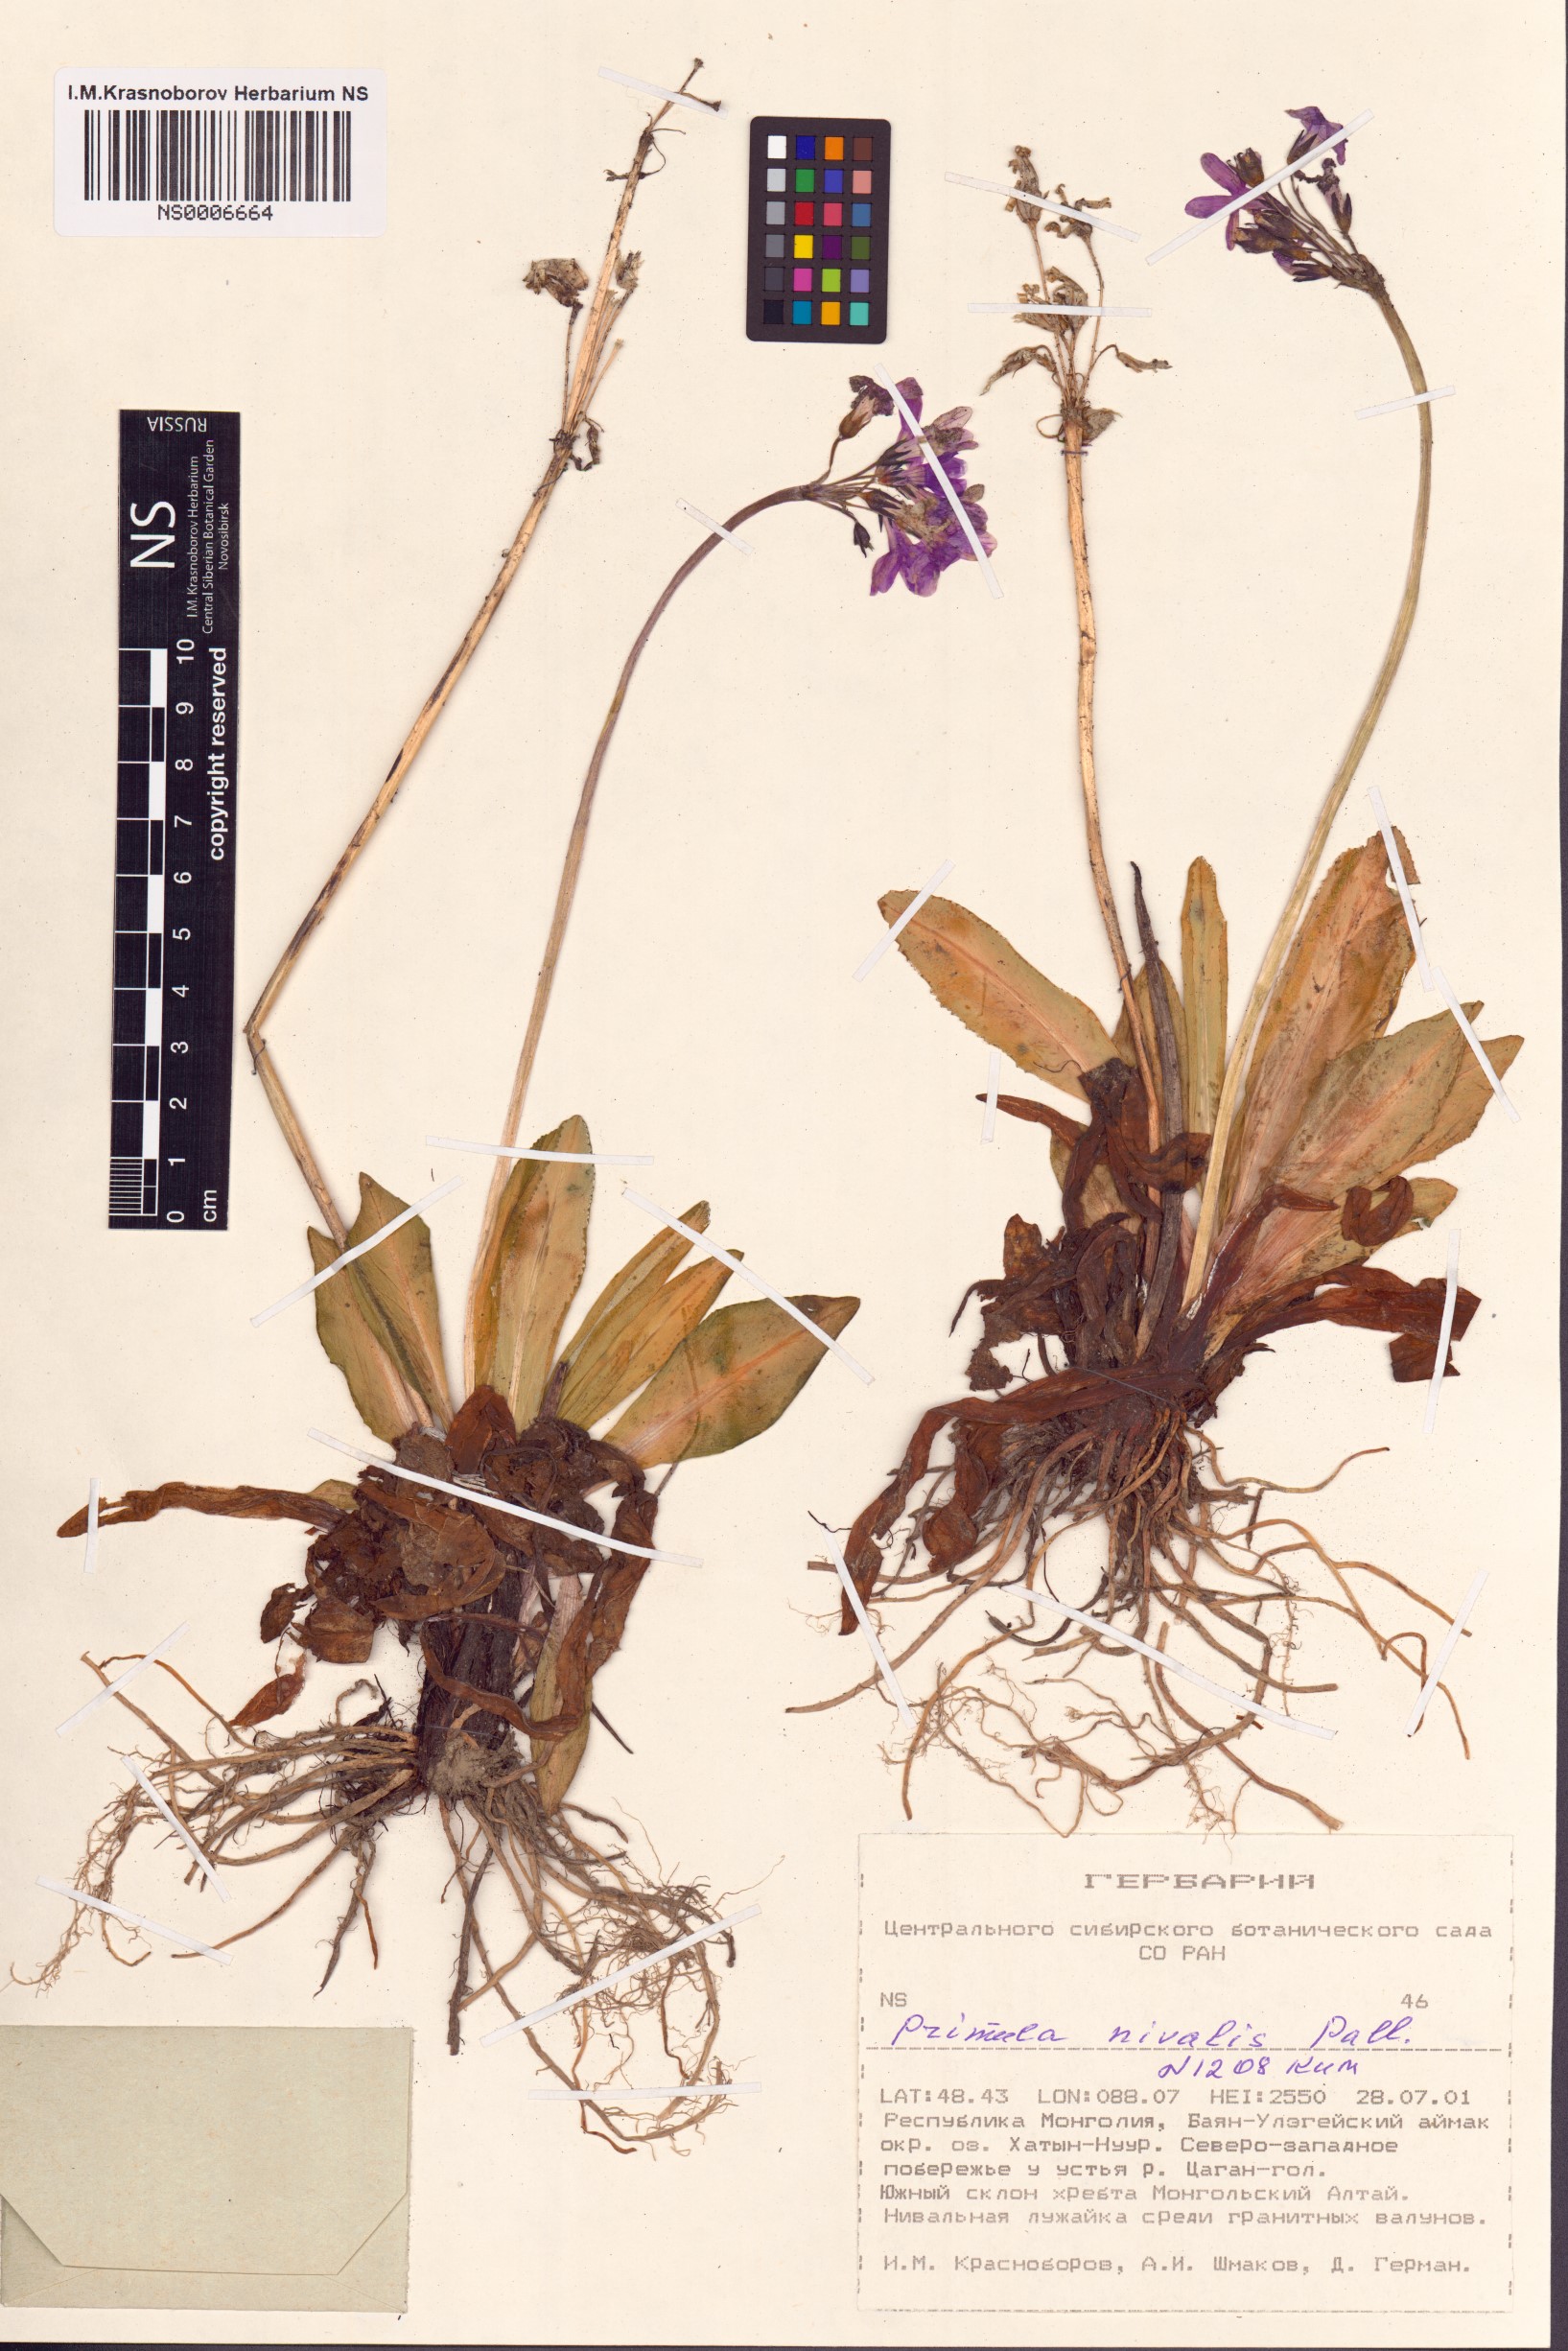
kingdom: Plantae
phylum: Tracheophyta
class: Magnoliopsida
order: Ericales
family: Primulaceae
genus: Primula
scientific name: Primula nivalis
